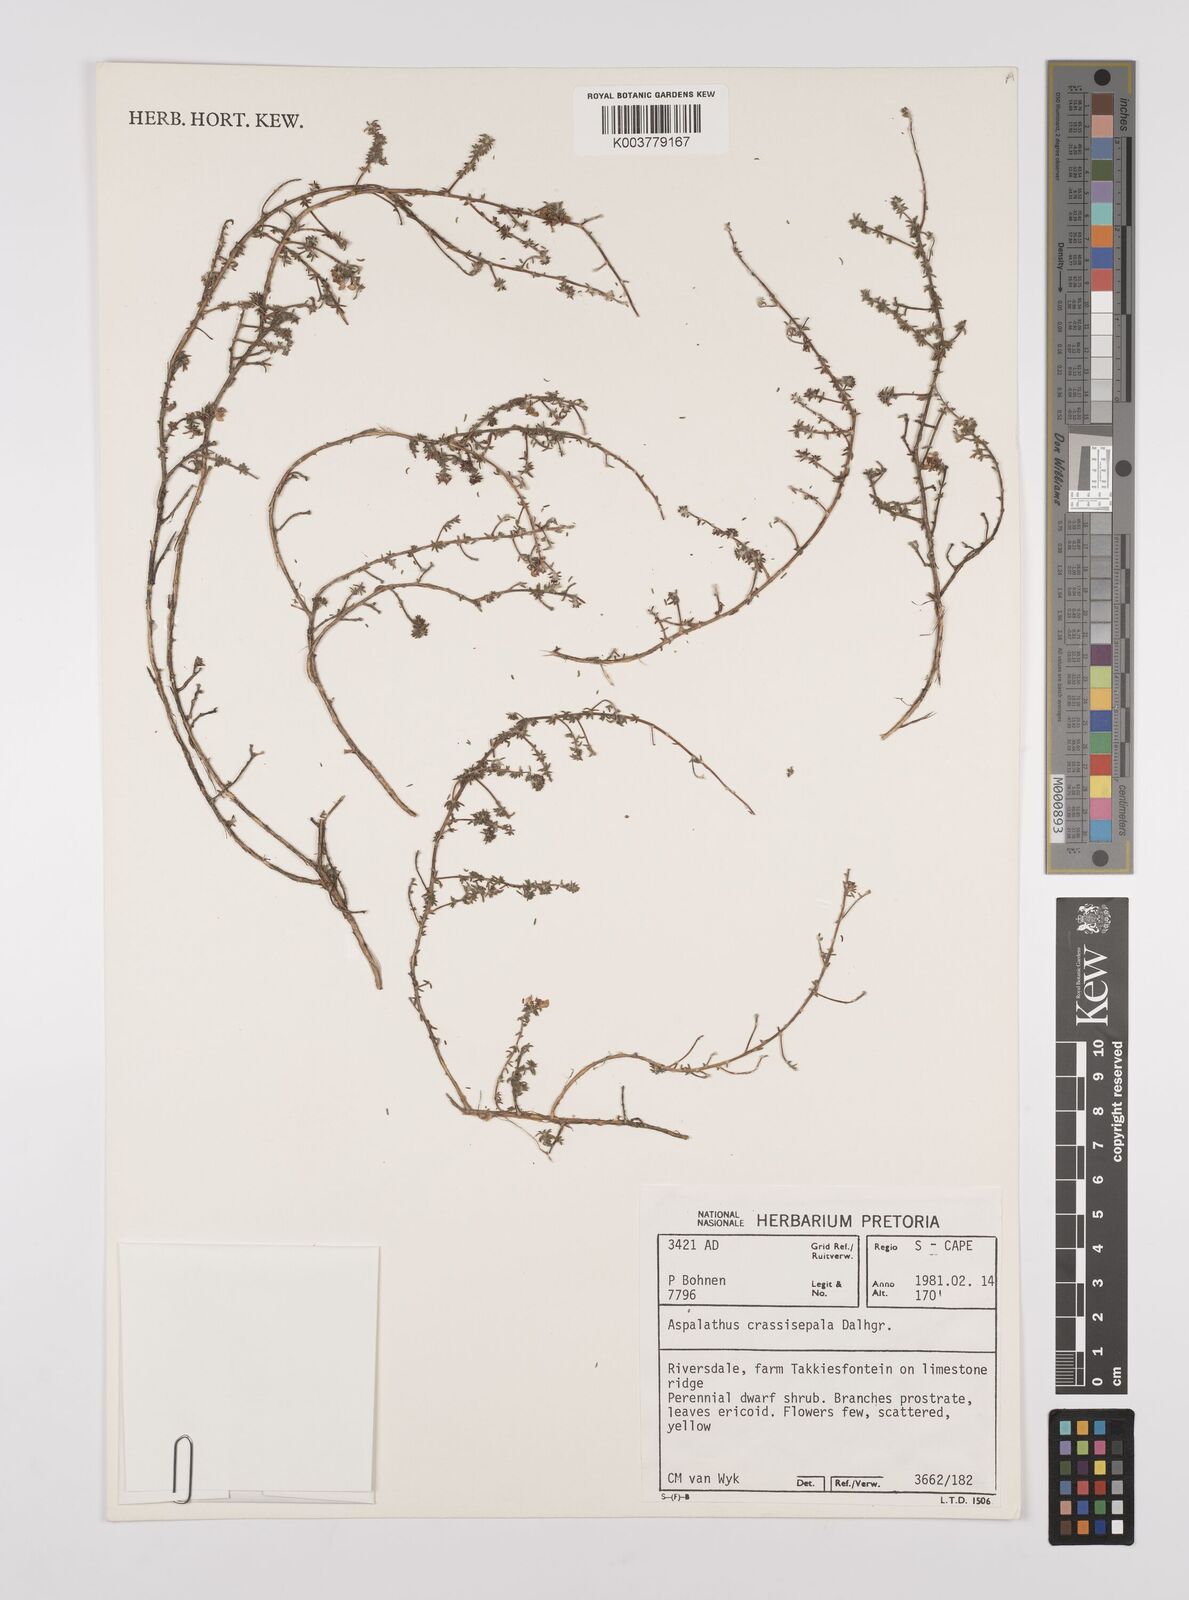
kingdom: Plantae
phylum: Tracheophyta
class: Magnoliopsida
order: Fabales
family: Fabaceae
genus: Aspalathus
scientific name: Aspalathus crassisepala
